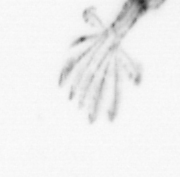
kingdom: Animalia
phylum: Arthropoda
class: Copepoda
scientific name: Copepoda
